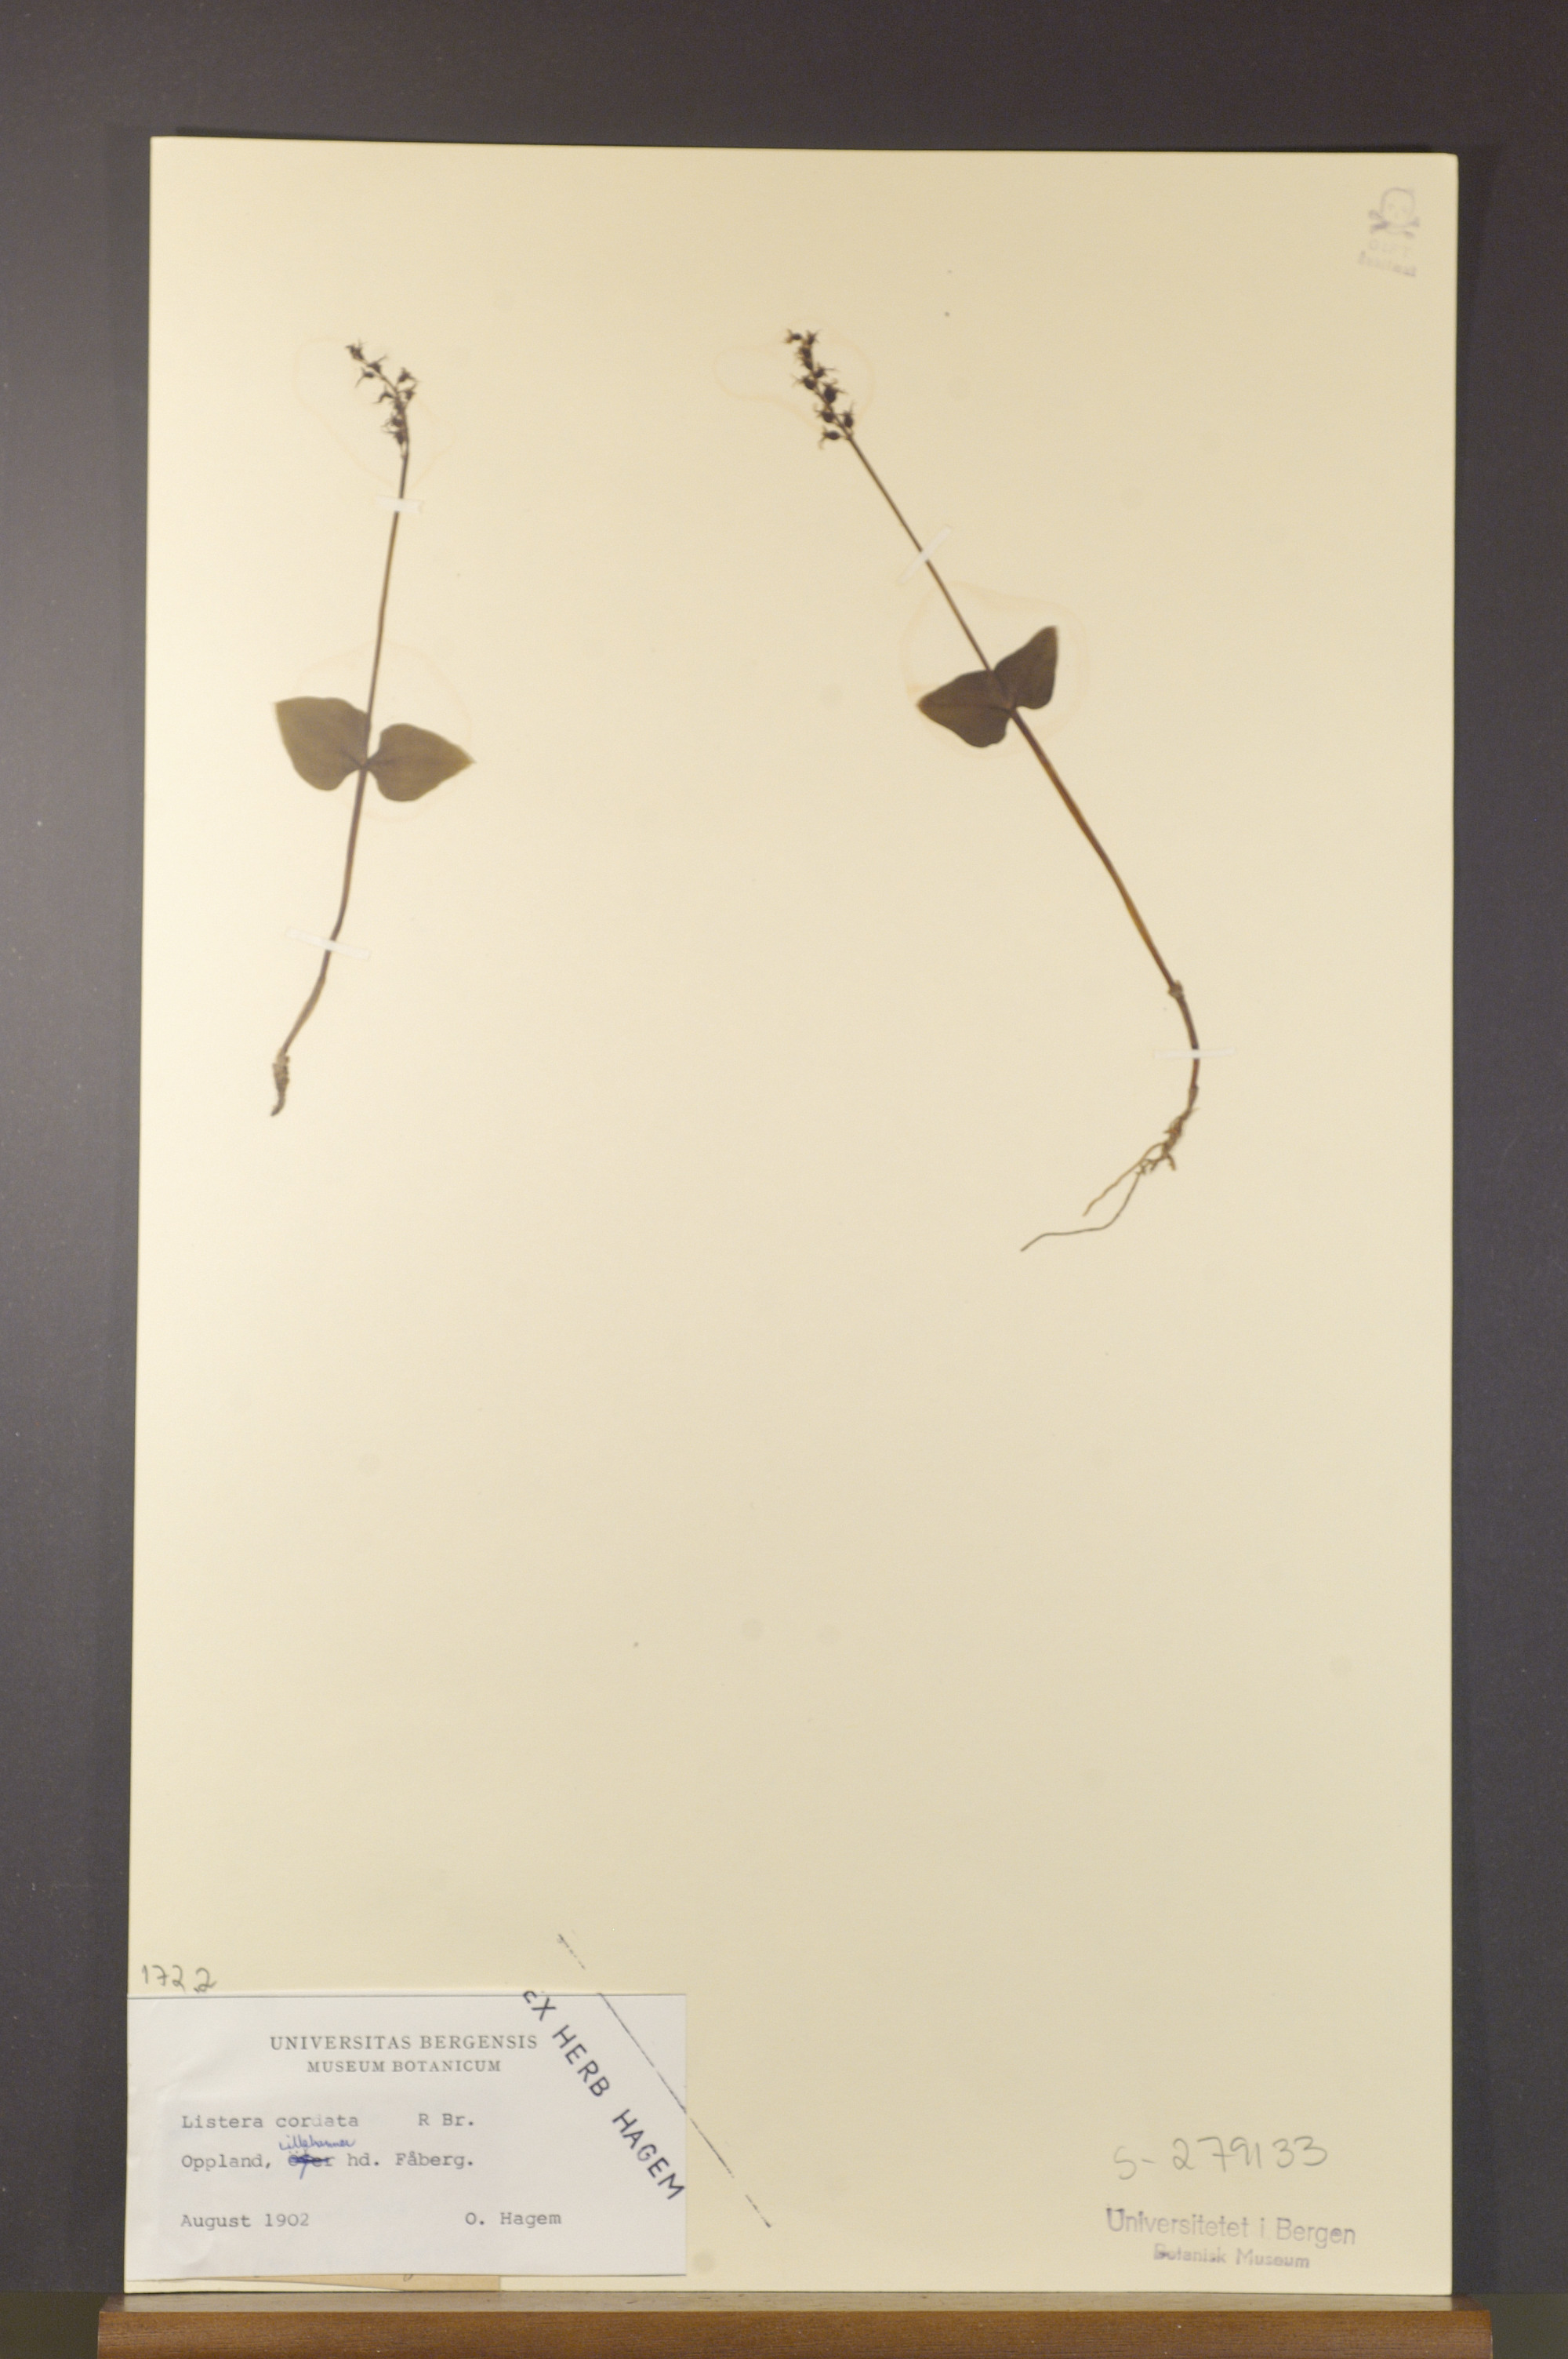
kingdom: Plantae
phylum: Tracheophyta
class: Liliopsida
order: Asparagales
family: Orchidaceae
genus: Neottia
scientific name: Neottia cordata
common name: Lesser twayblade
